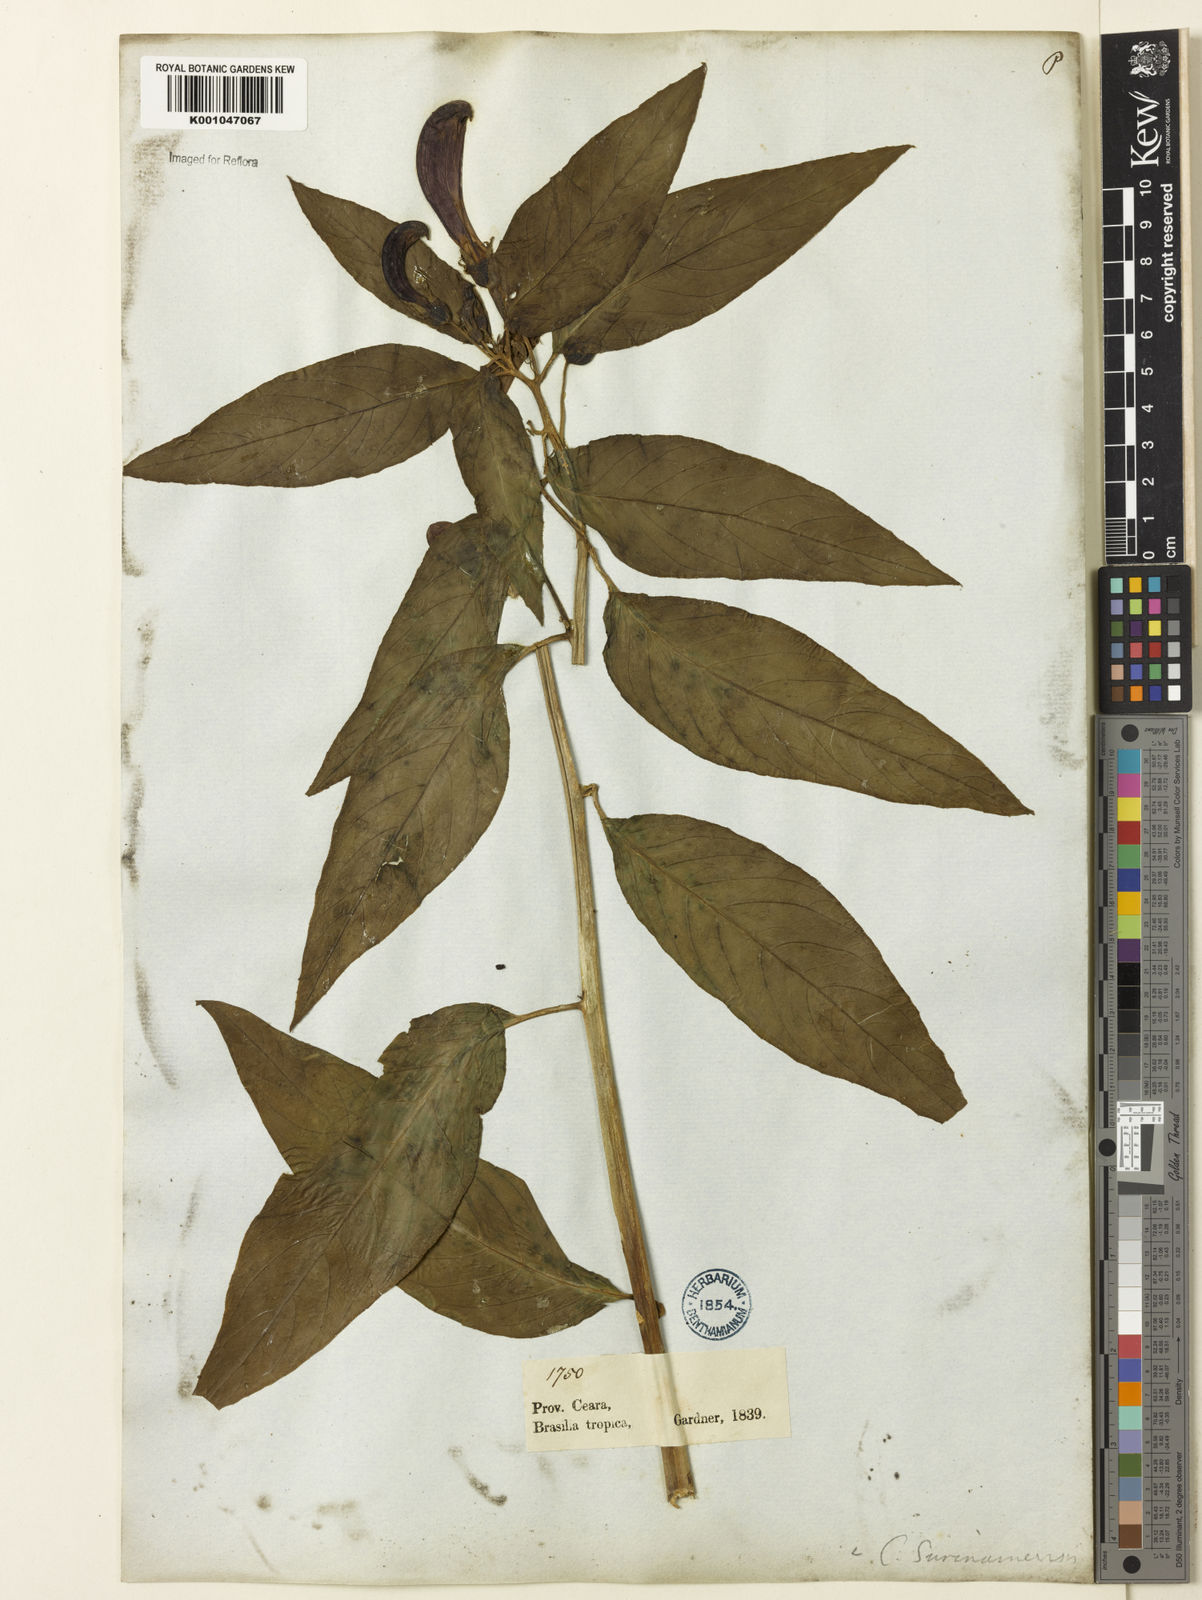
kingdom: Plantae
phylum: Tracheophyta
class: Magnoliopsida
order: Asterales
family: Campanulaceae
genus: Centropogon
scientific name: Centropogon cornutus
